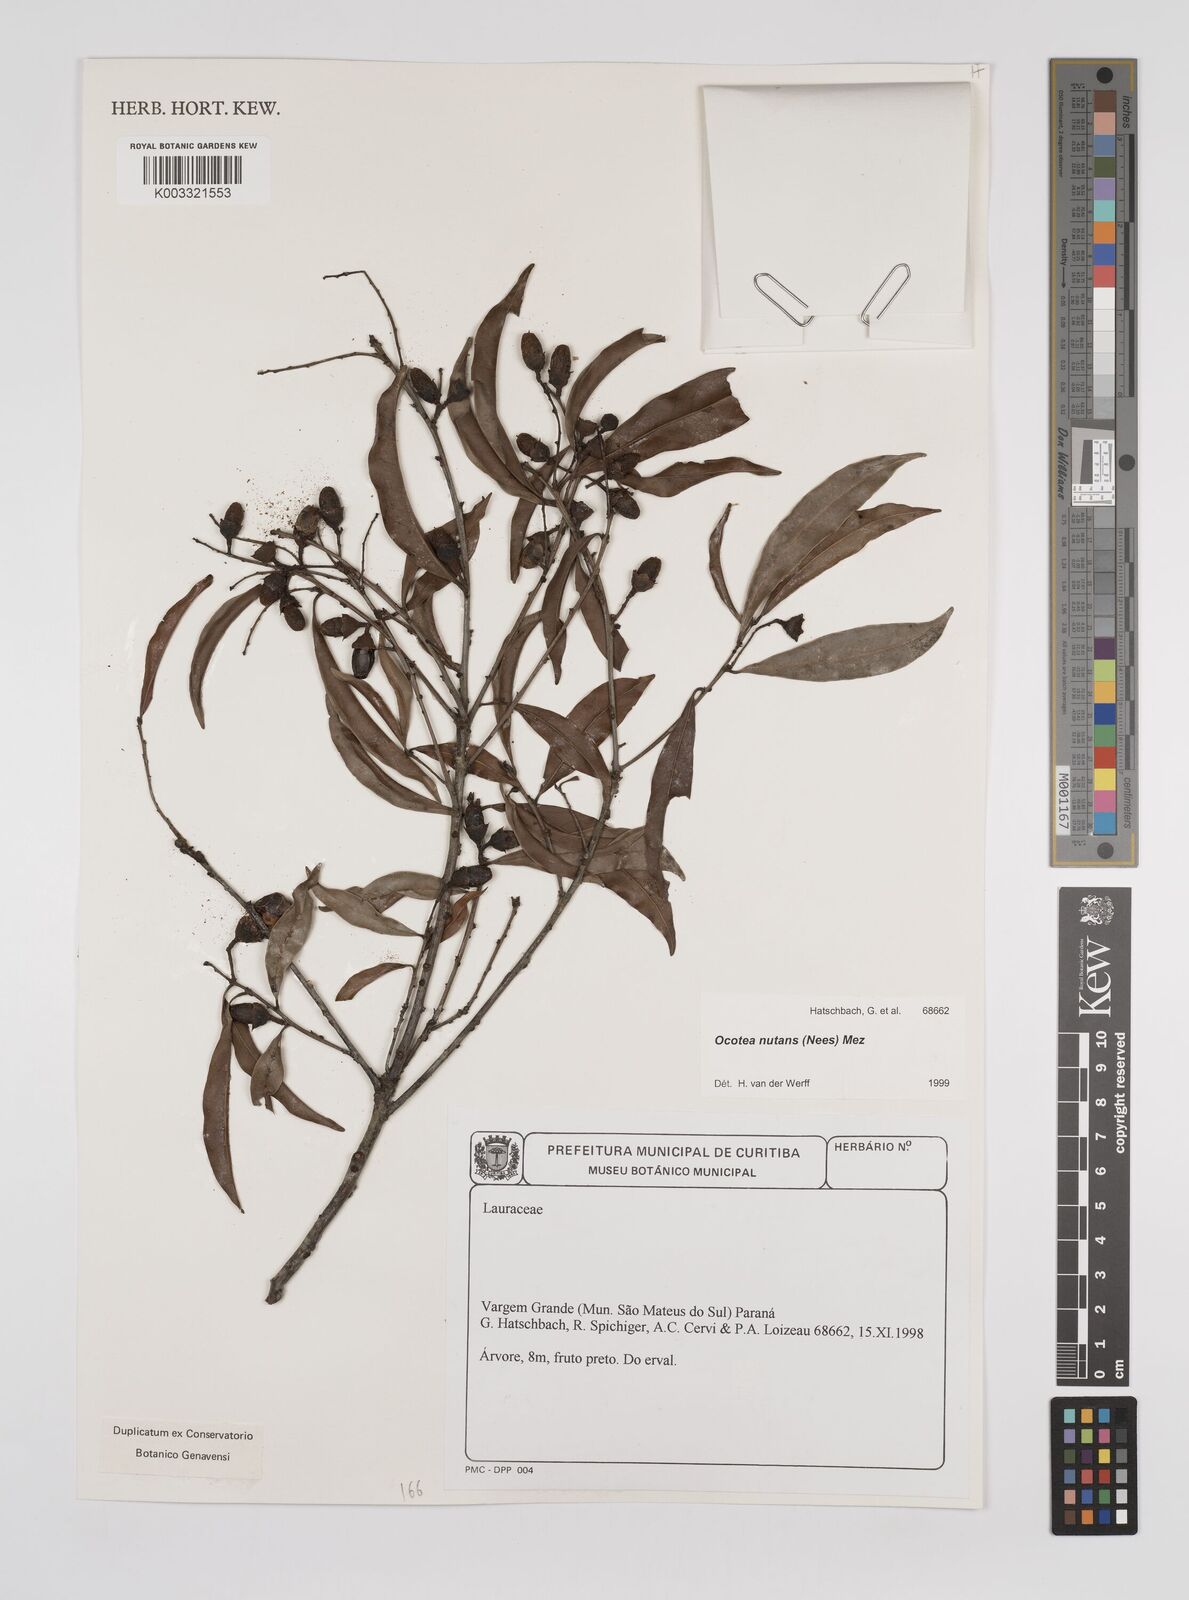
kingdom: Plantae
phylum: Tracheophyta
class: Magnoliopsida
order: Laurales
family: Lauraceae
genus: Mespilodaphne
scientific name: Mespilodaphne nutans
